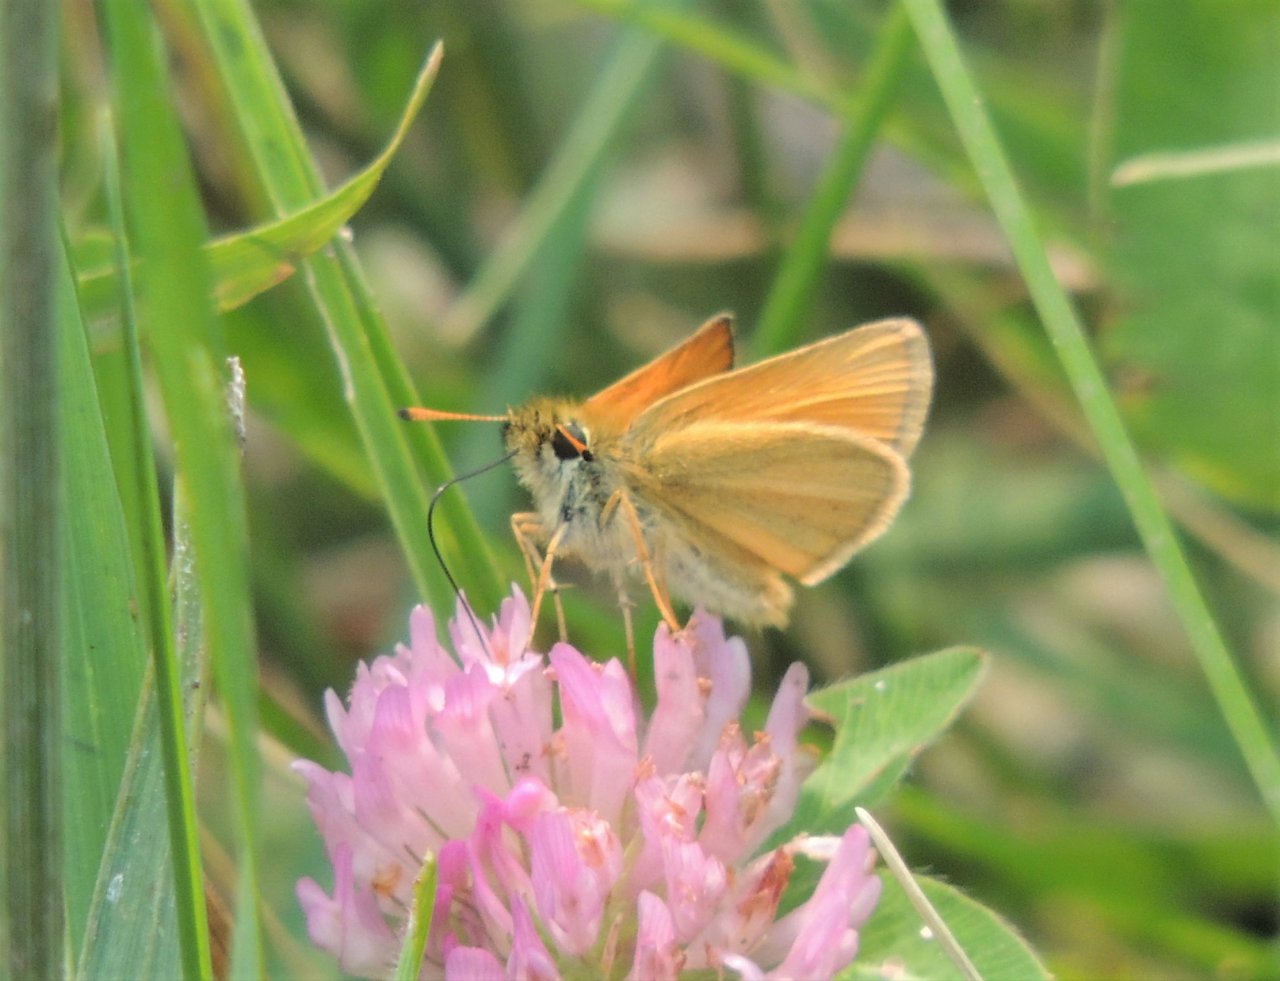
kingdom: Animalia
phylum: Arthropoda
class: Insecta
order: Lepidoptera
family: Hesperiidae
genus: Thymelicus
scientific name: Thymelicus lineola
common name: European Skipper
